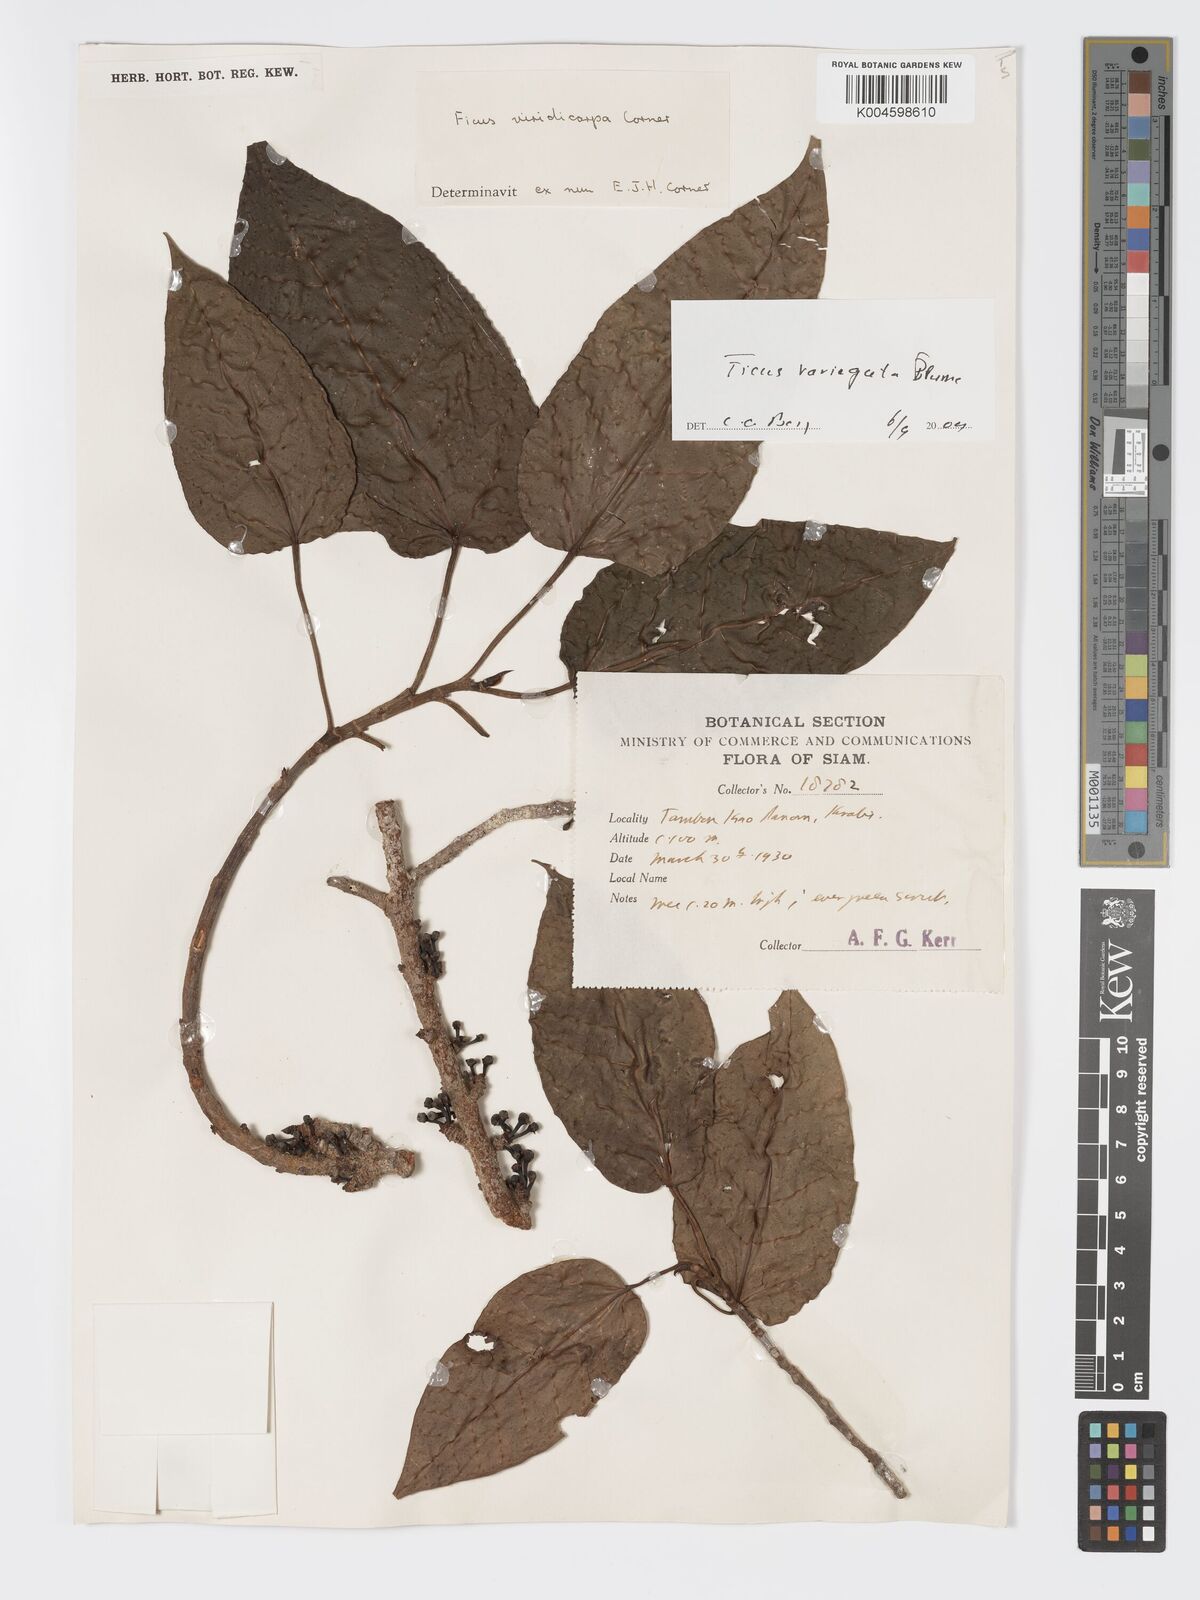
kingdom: Plantae
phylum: Tracheophyta
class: Magnoliopsida
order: Rosales
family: Moraceae
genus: Ficus
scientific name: Ficus variegata
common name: Variegated fig
